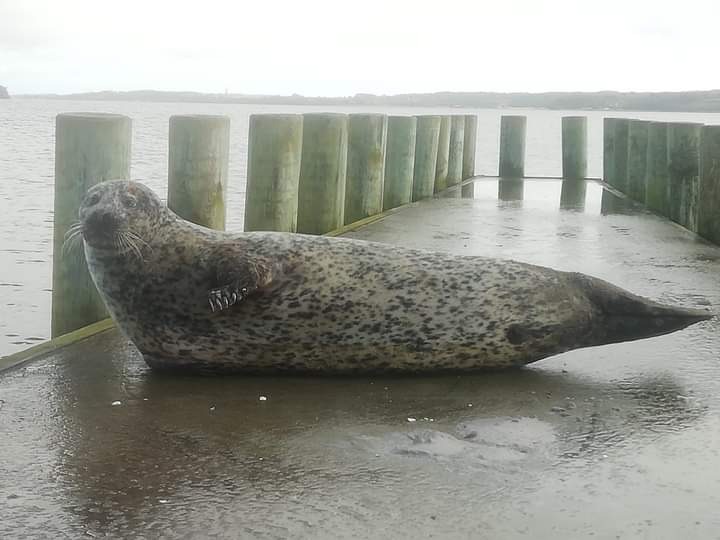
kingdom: Animalia
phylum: Chordata
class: Mammalia
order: Carnivora
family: Phocidae
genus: Phoca
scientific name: Phoca vitulina
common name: Spættet sæl
